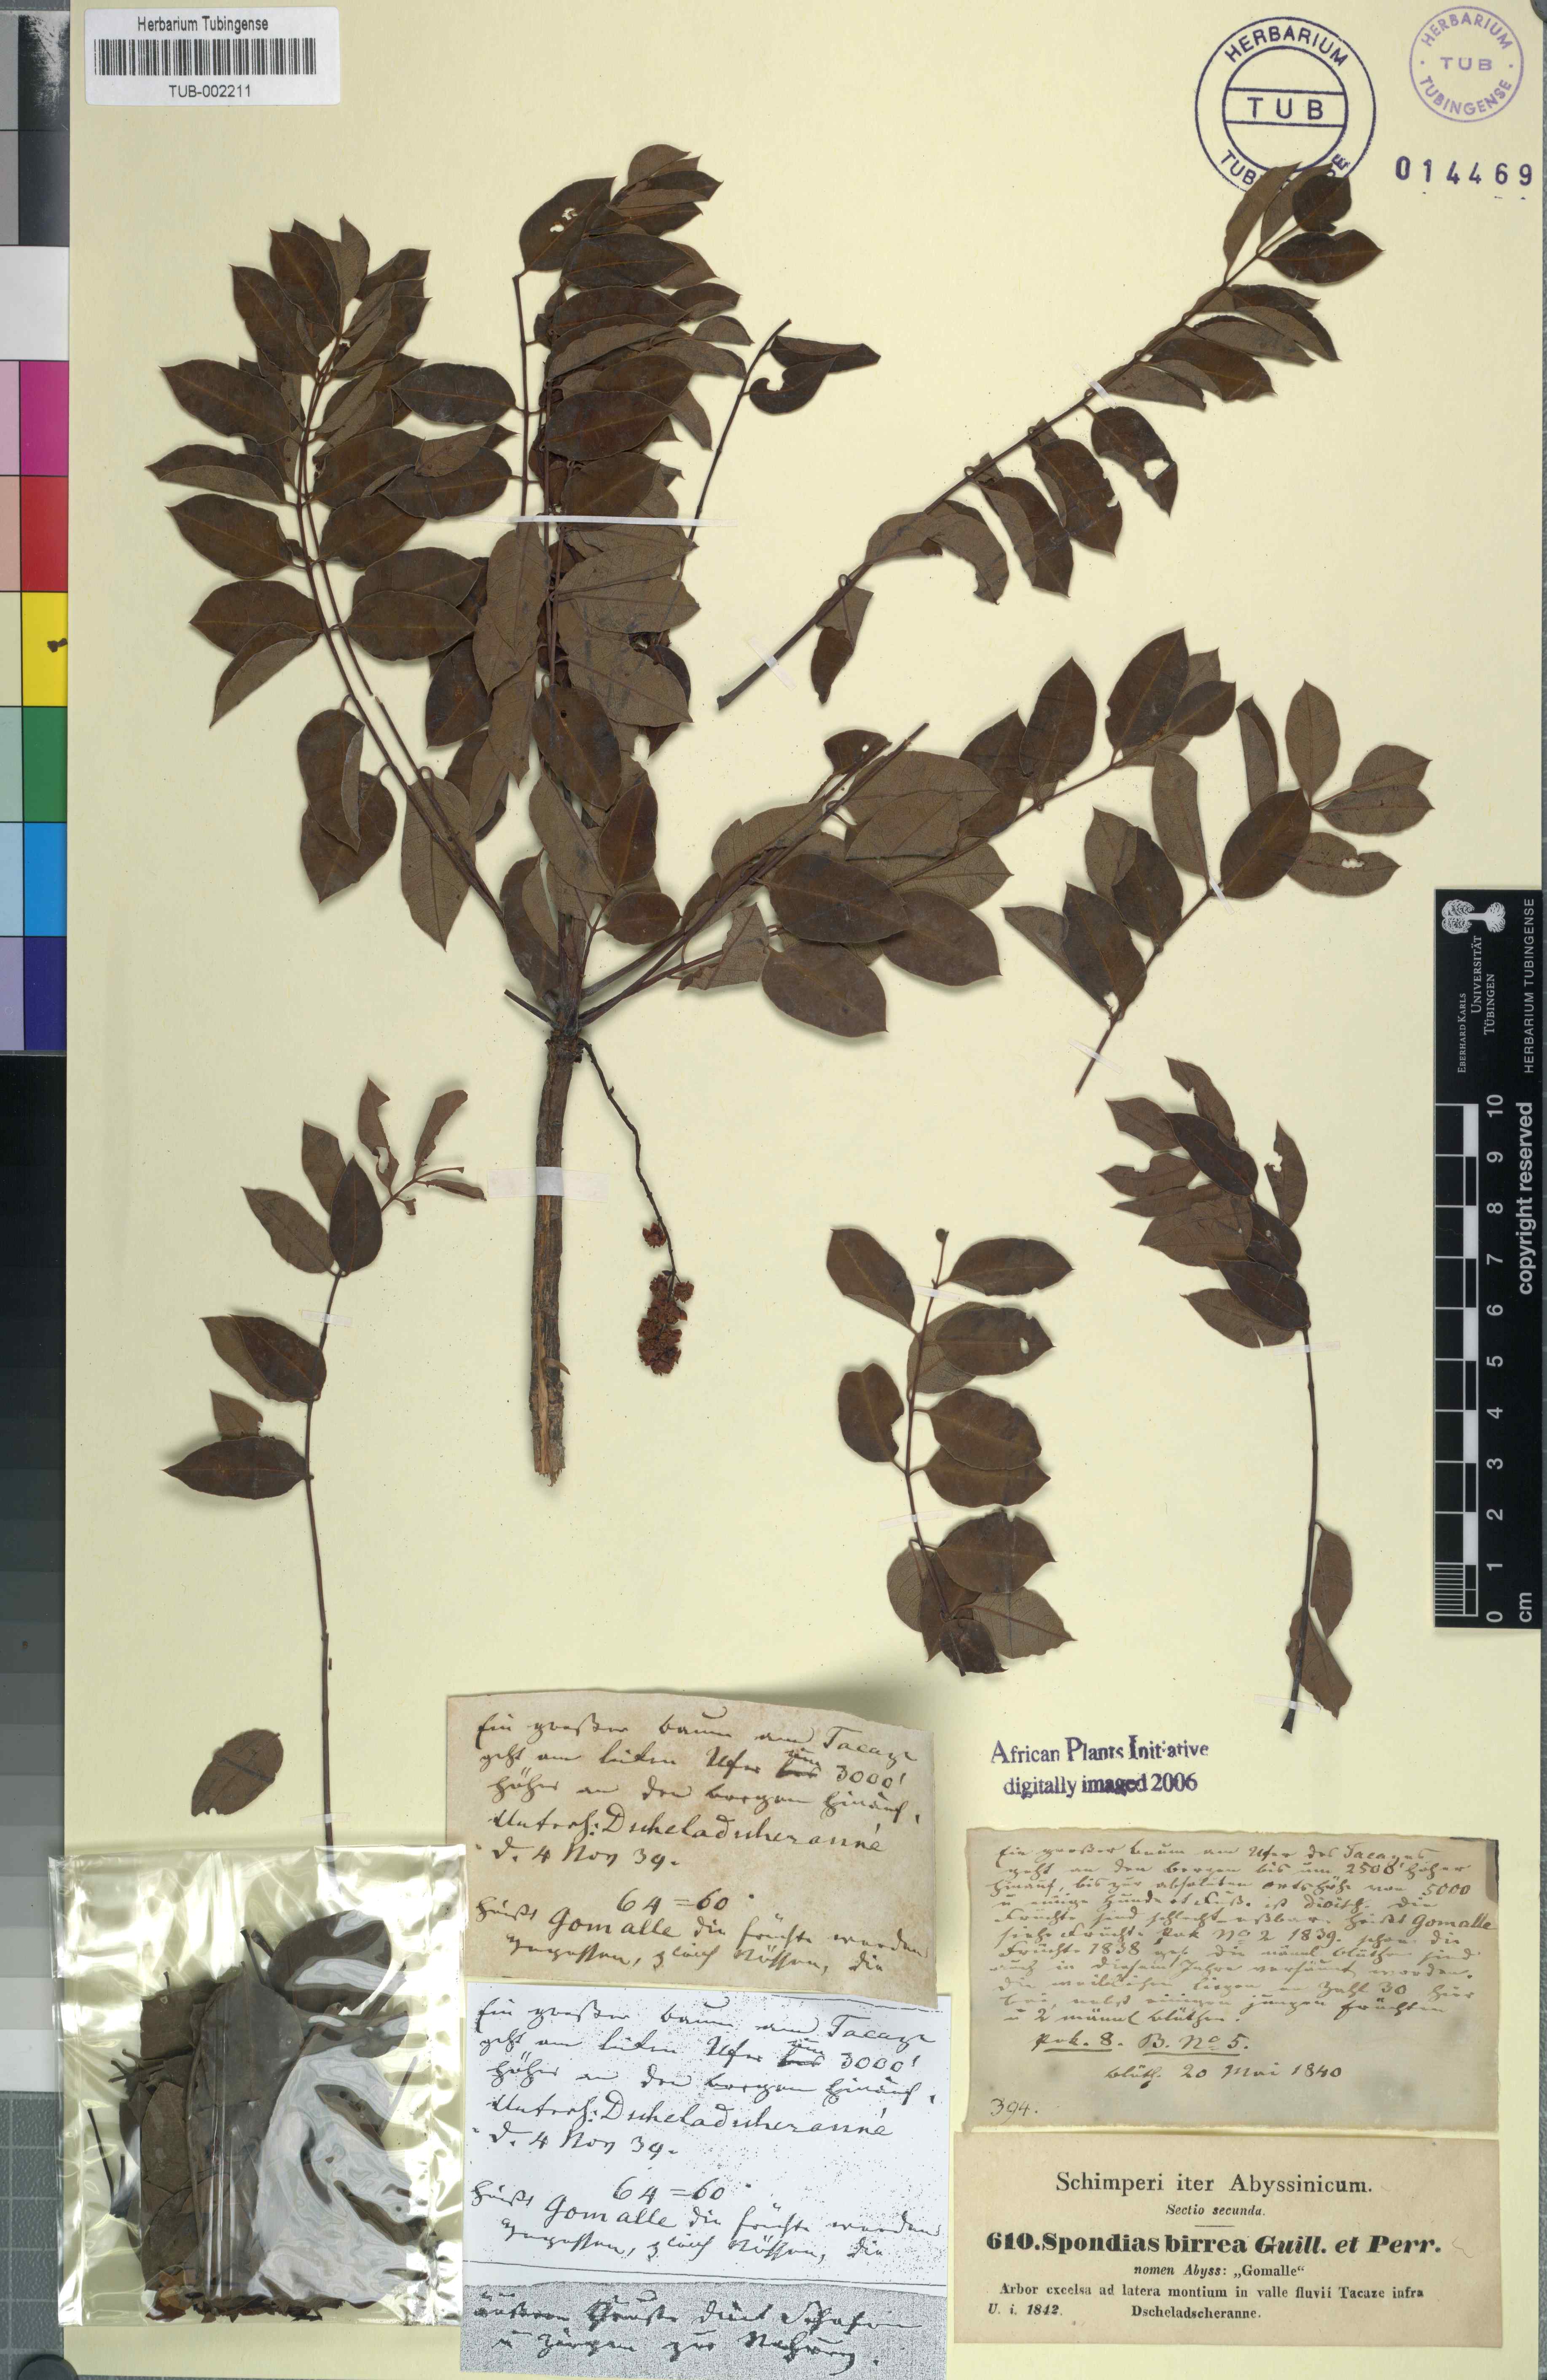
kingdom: Plantae
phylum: Tracheophyta
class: Magnoliopsida
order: Sapindales
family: Anacardiaceae
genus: Sclerocarya
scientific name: Sclerocarya birrea
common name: Marula
